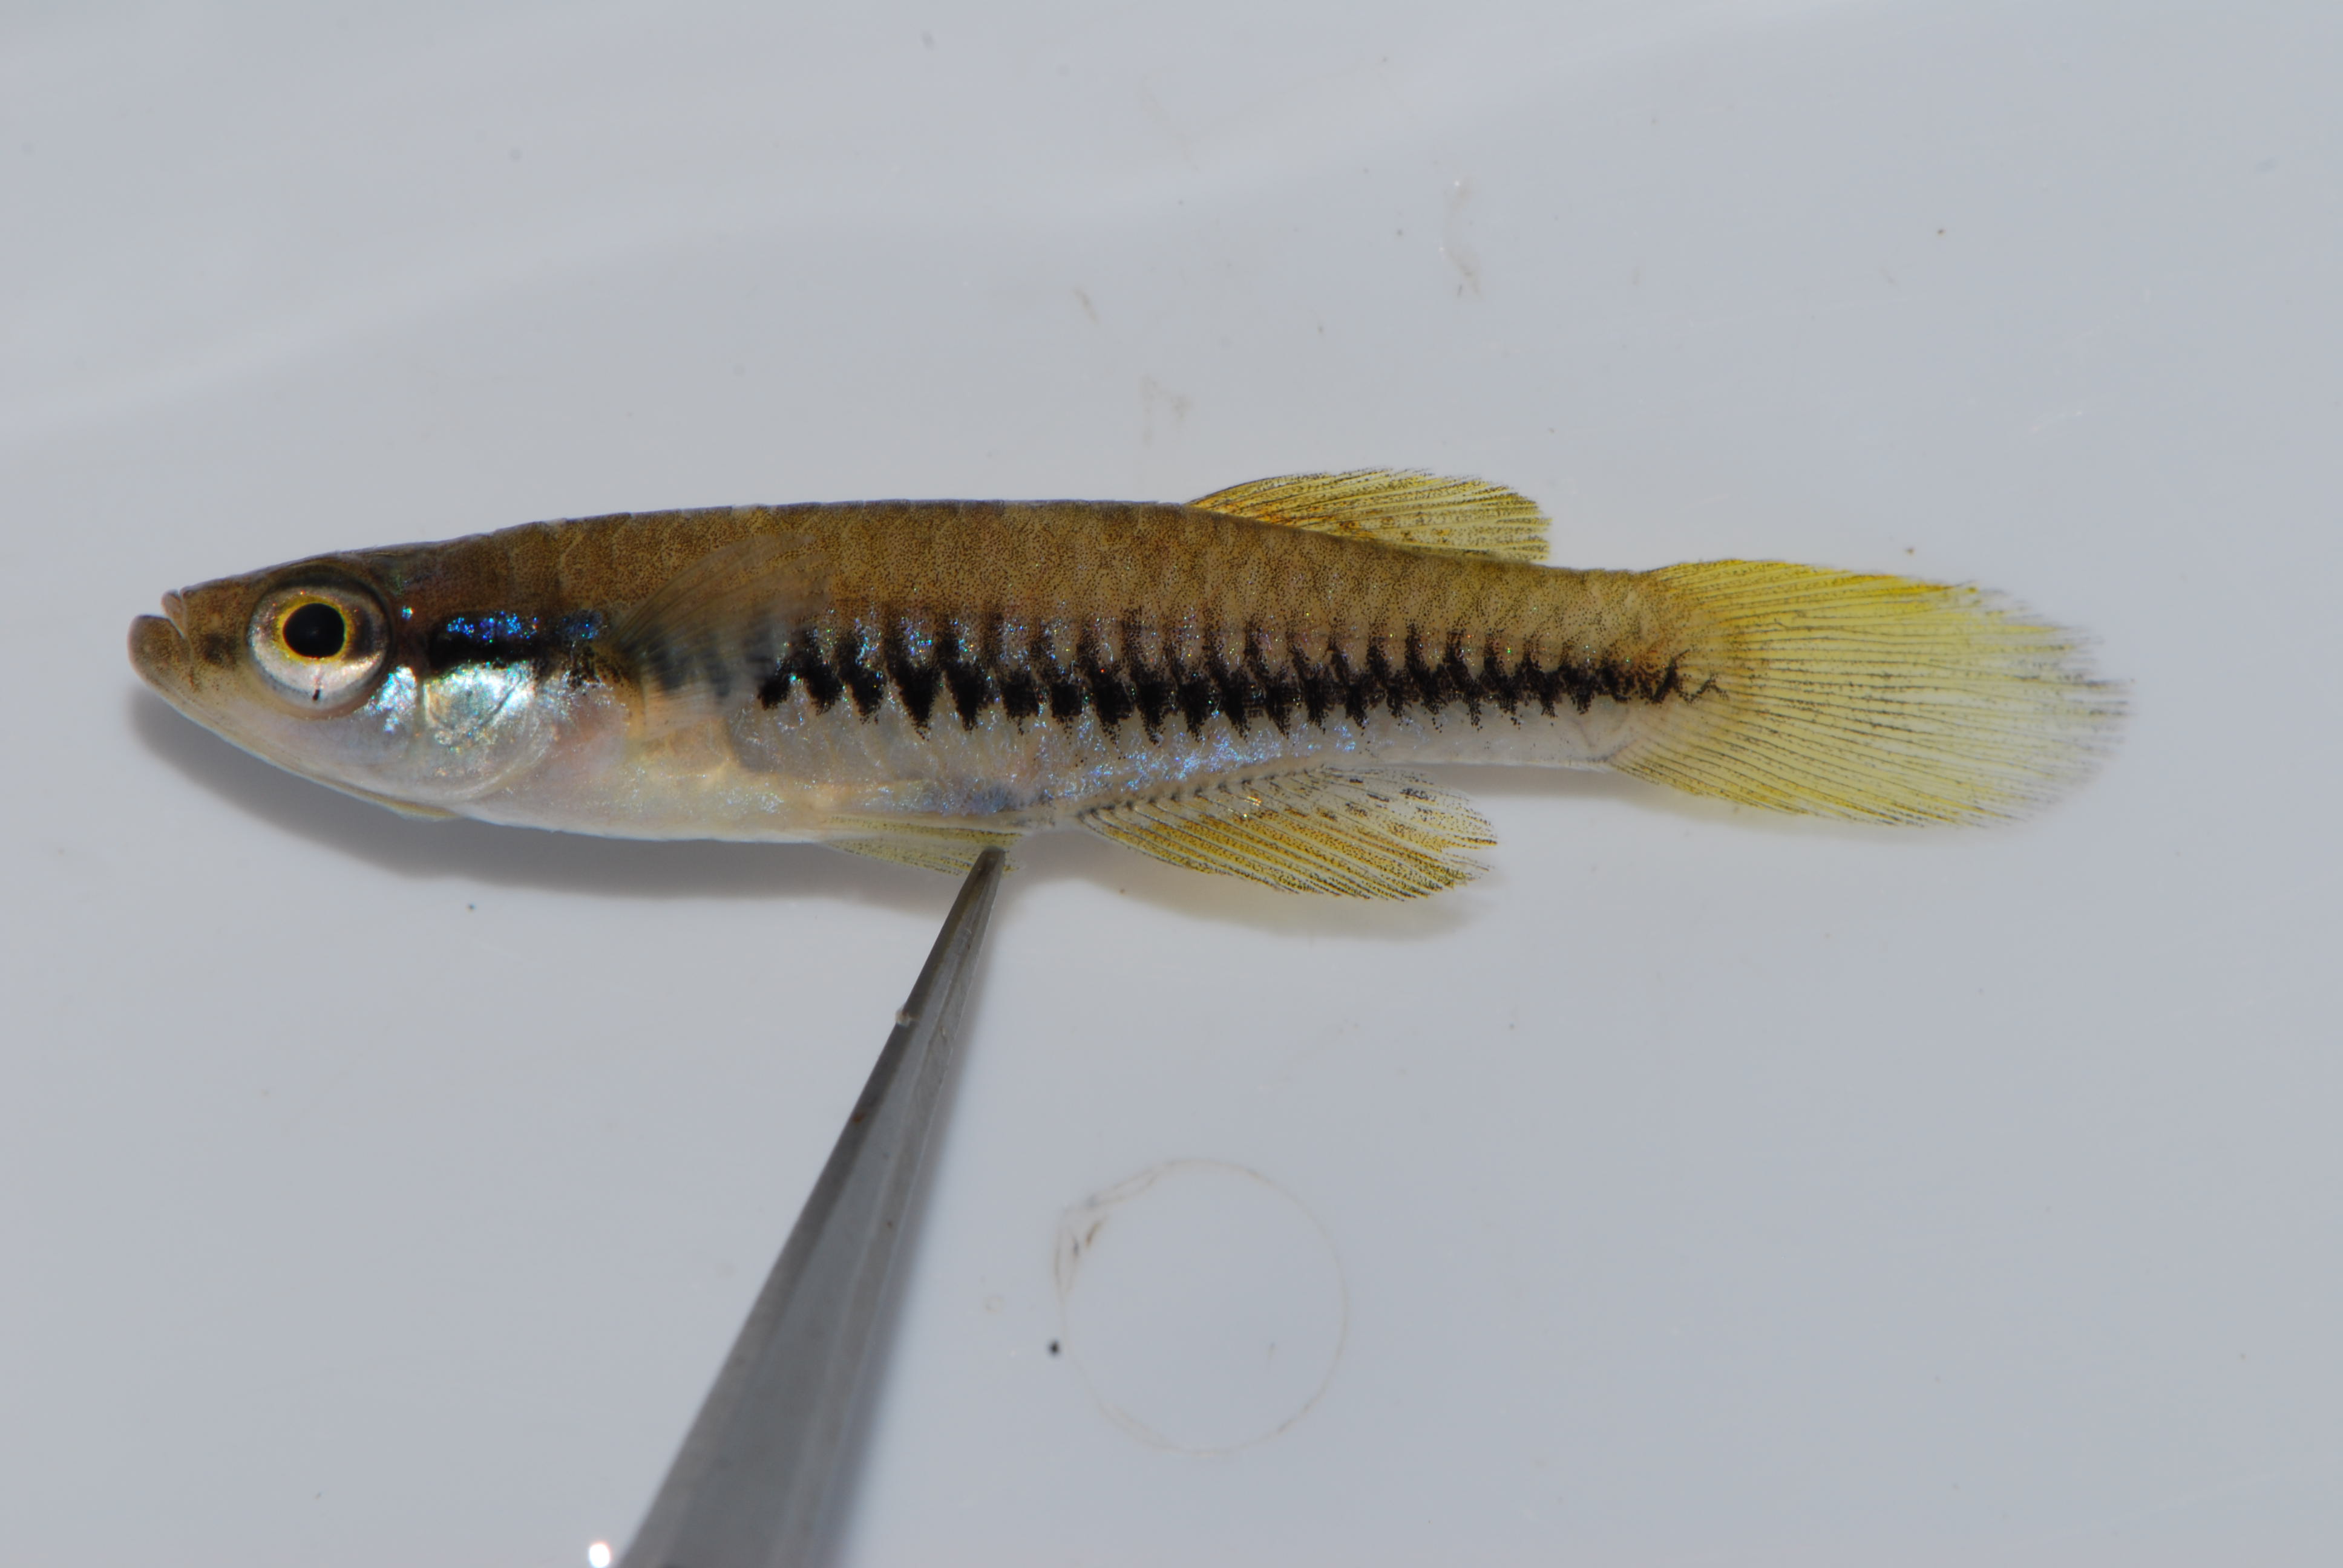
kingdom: Animalia
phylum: Chordata
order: Cyprinodontiformes
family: Poeciliidae
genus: Lacustricola
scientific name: Lacustricola katangae
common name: Striped topminnow
